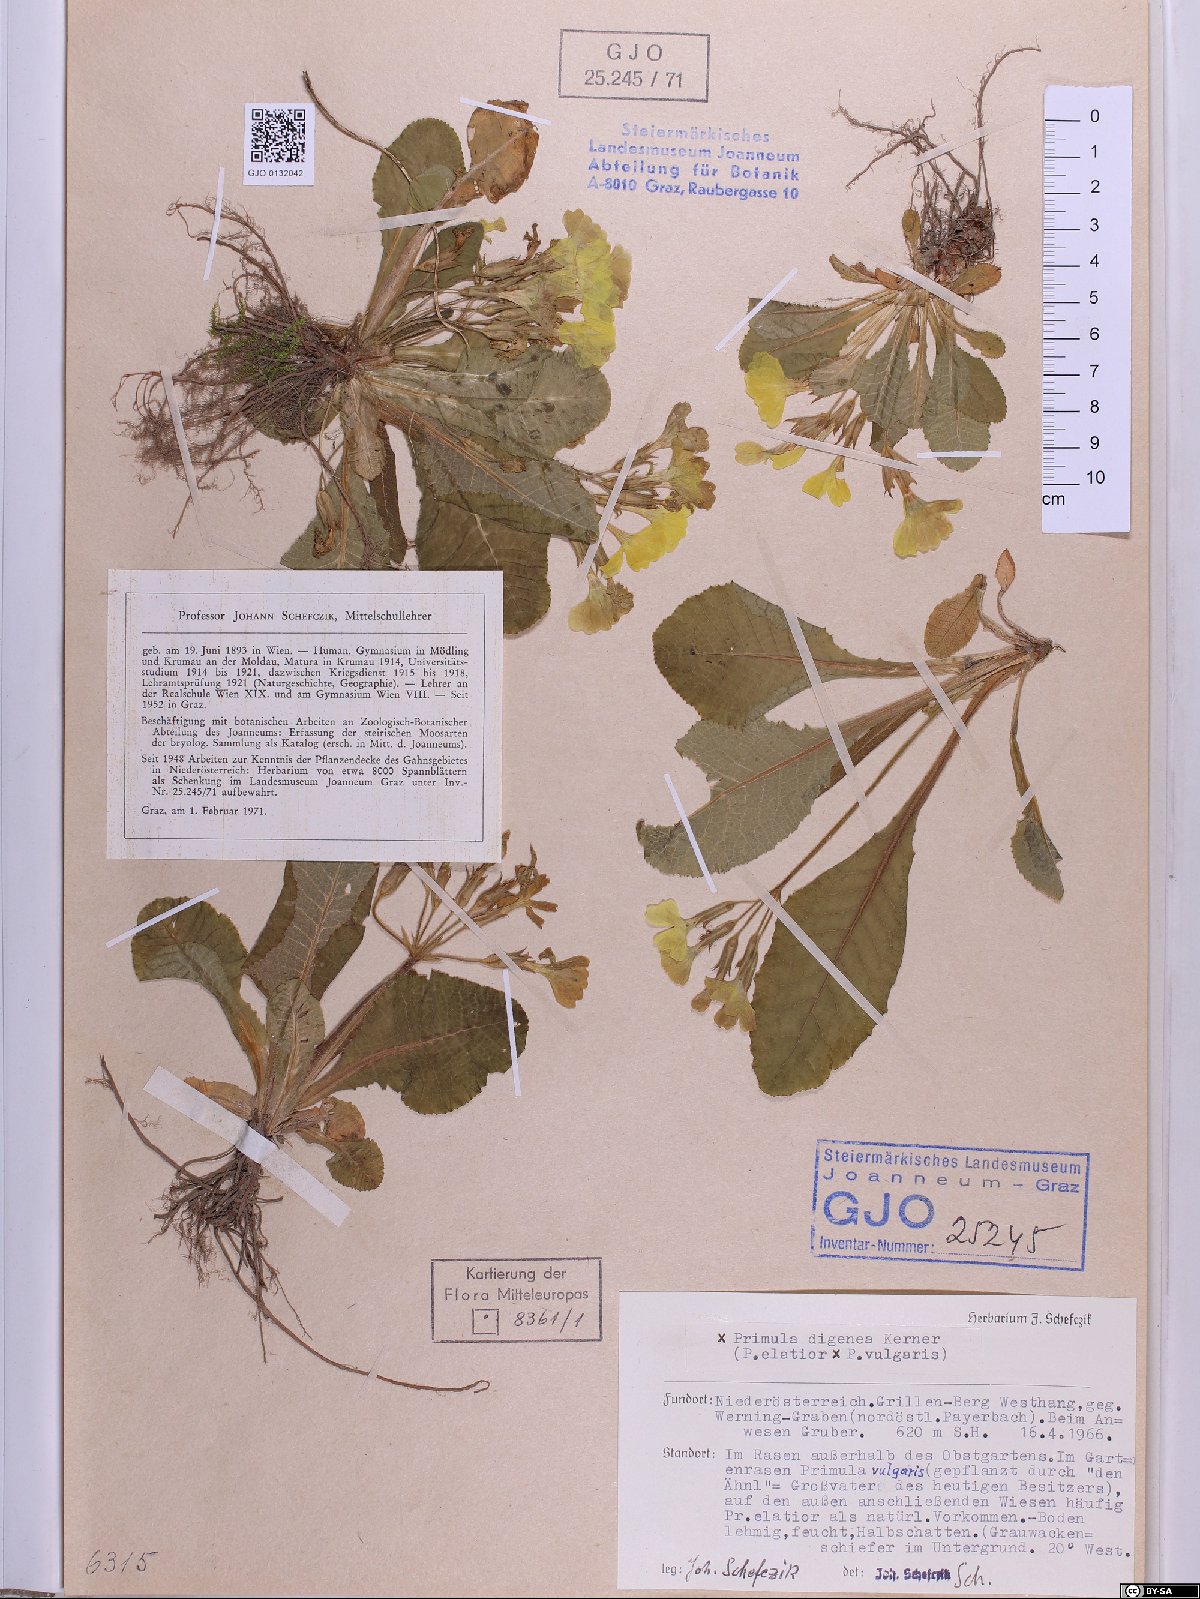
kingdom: Plantae
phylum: Tracheophyta
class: Magnoliopsida
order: Ericales
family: Primulaceae
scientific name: Primulaceae
